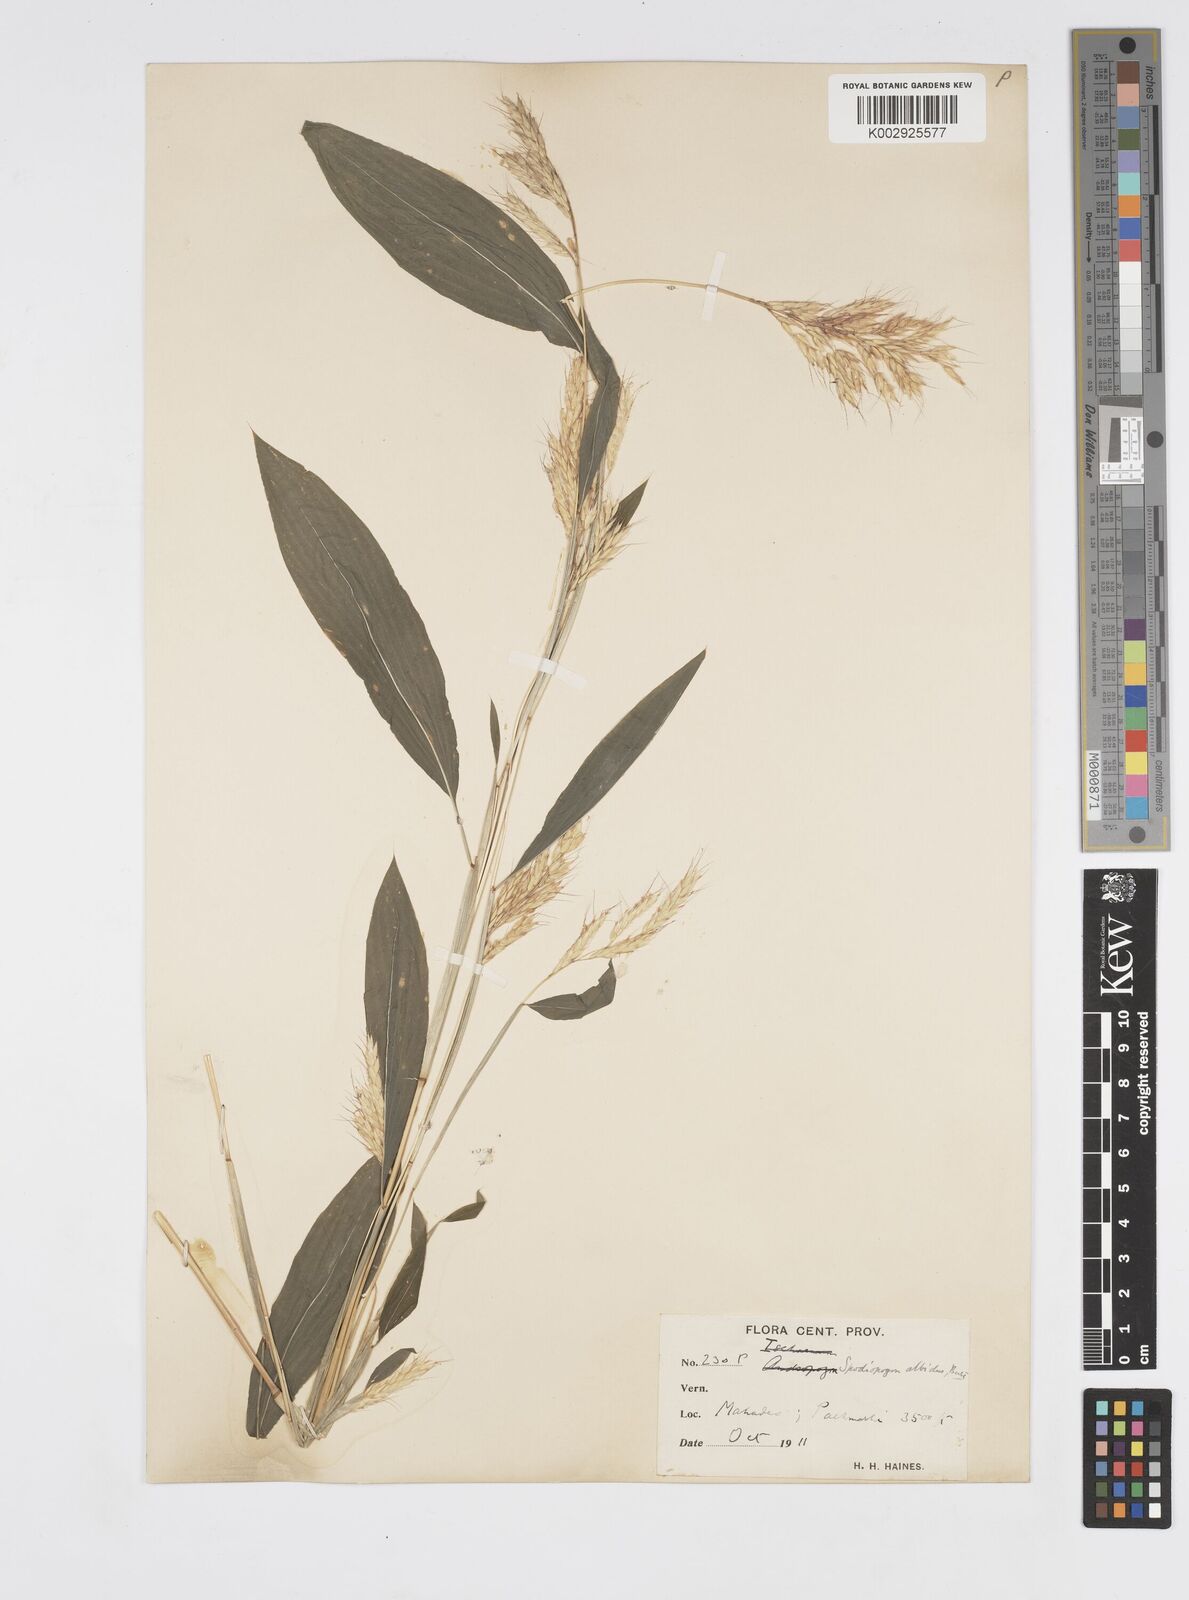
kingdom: Plantae
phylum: Tracheophyta
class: Liliopsida
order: Poales
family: Poaceae
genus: Spodiopogon
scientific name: Spodiopogon rhizophorus
